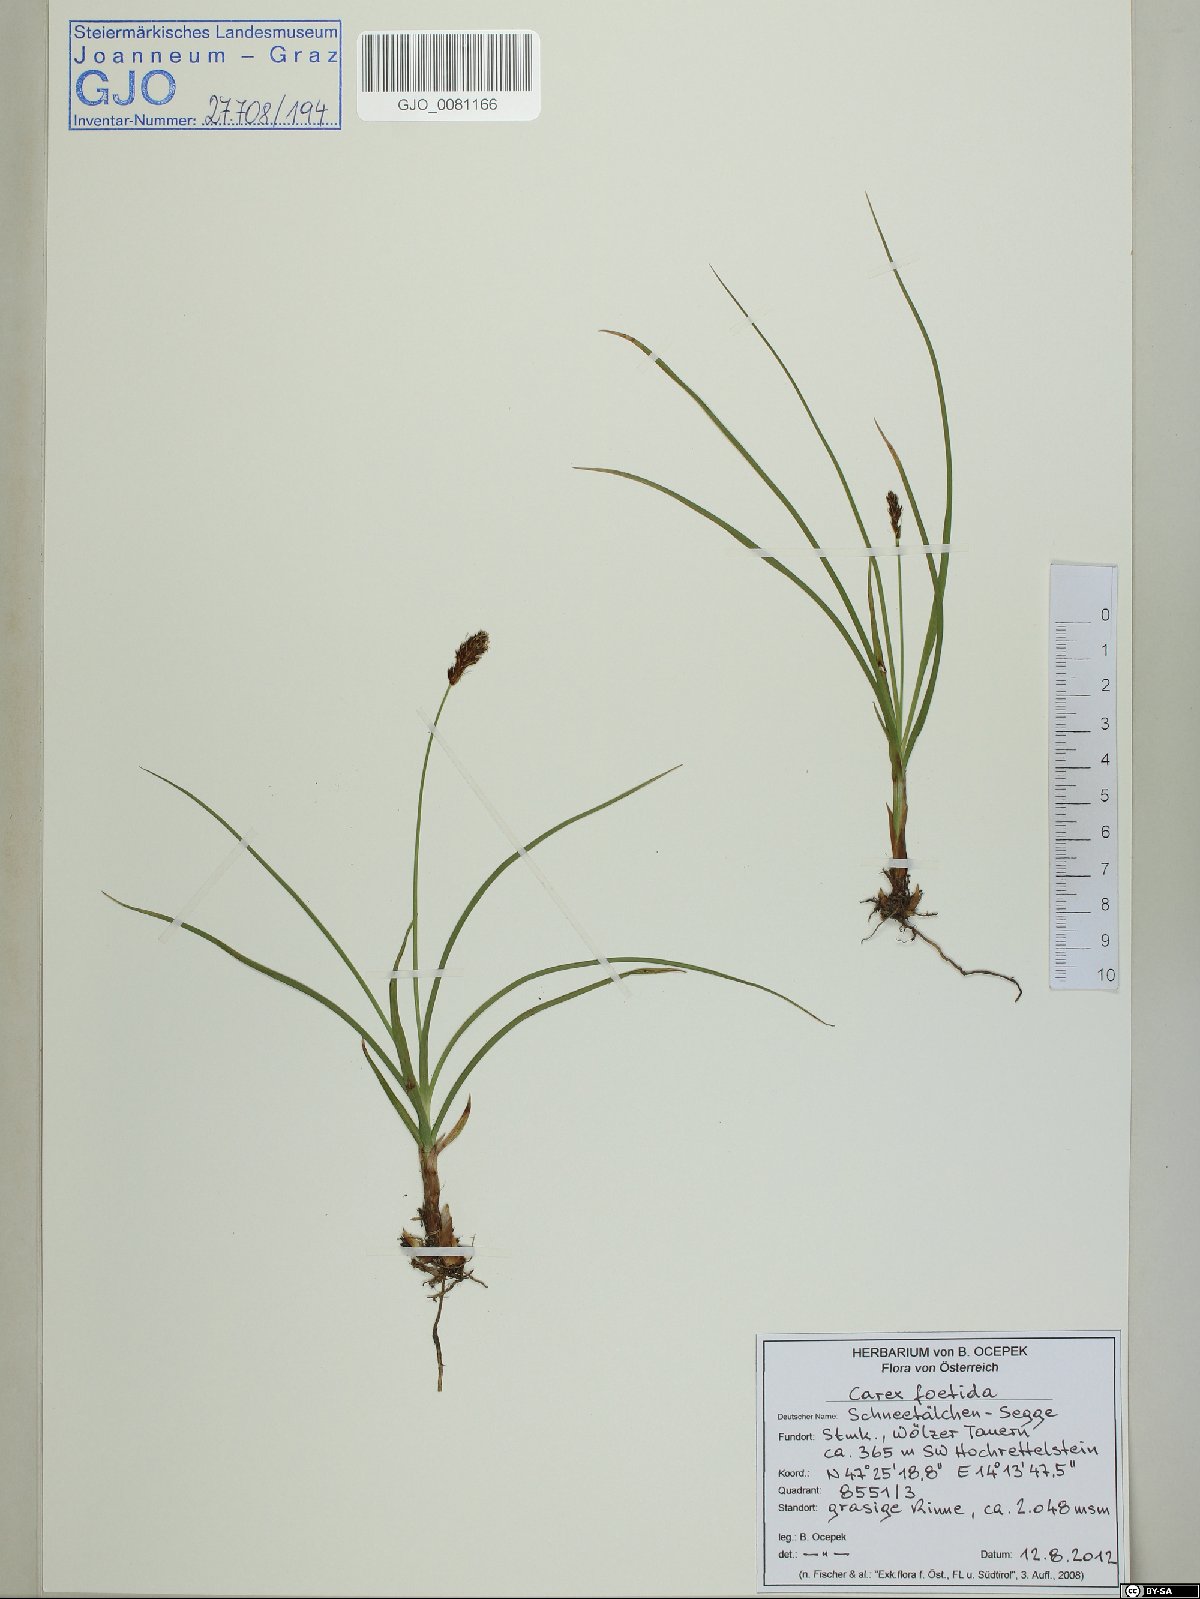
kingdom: Plantae
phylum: Tracheophyta
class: Liliopsida
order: Poales
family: Cyperaceae
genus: Carex
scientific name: Carex foetida
